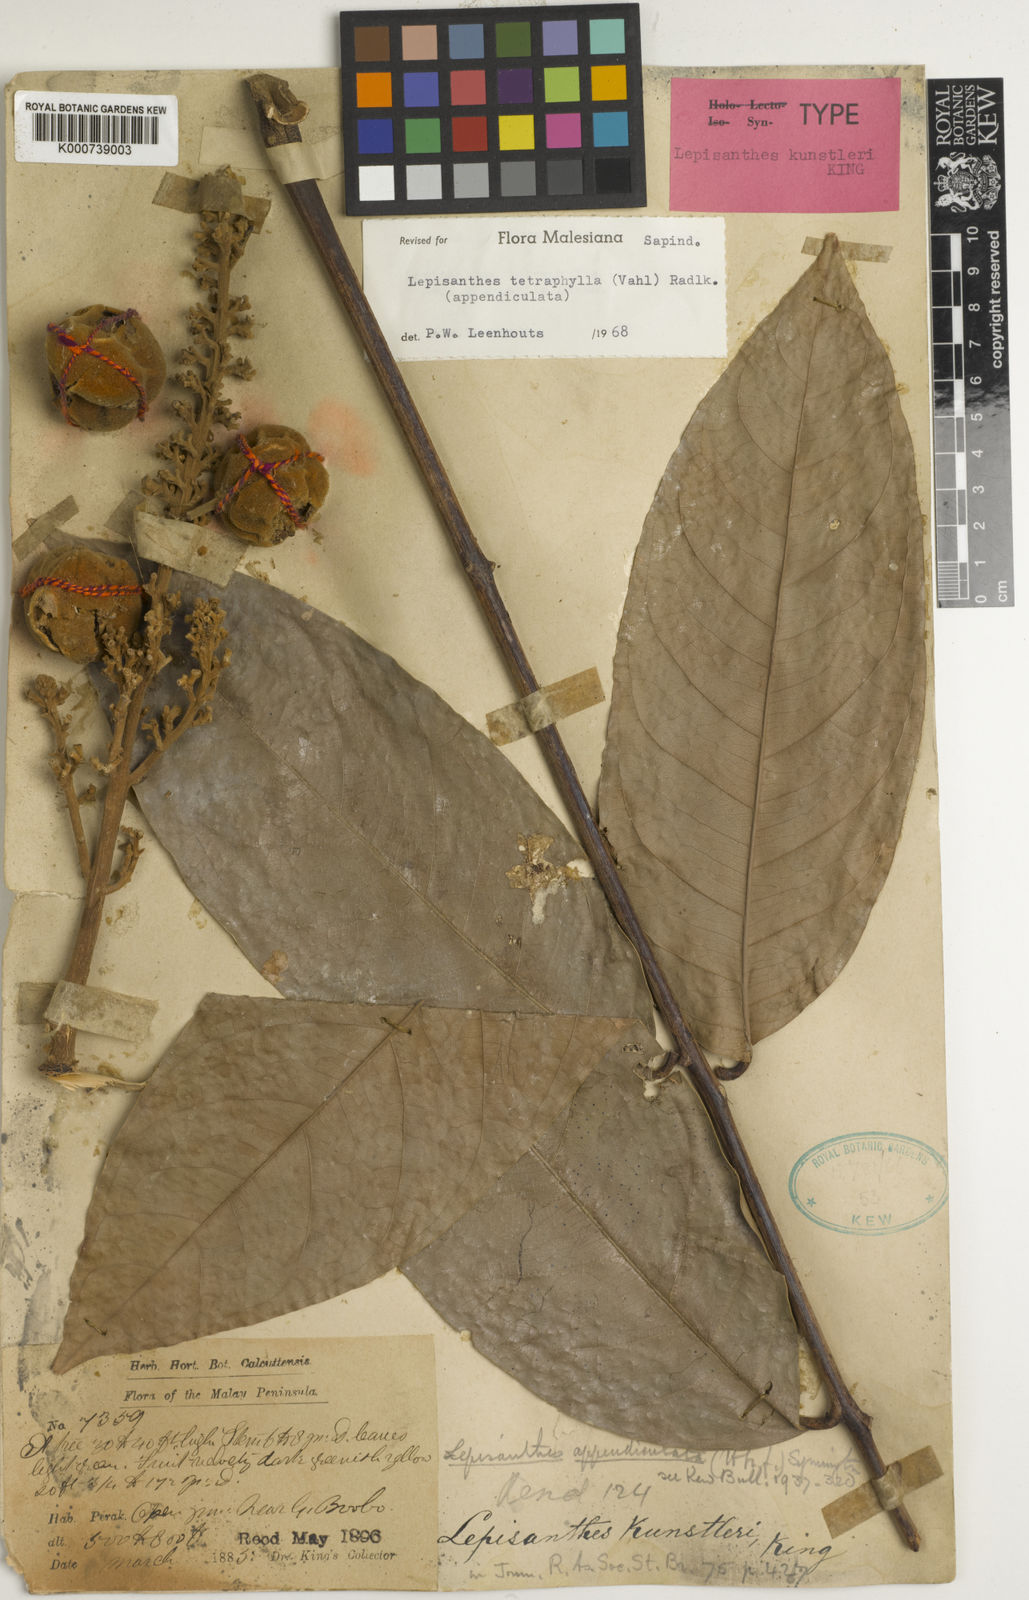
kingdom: Plantae
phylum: Tracheophyta
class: Magnoliopsida
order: Sapindales
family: Sapindaceae
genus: Lepisanthes
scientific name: Lepisanthes tetraphylla
